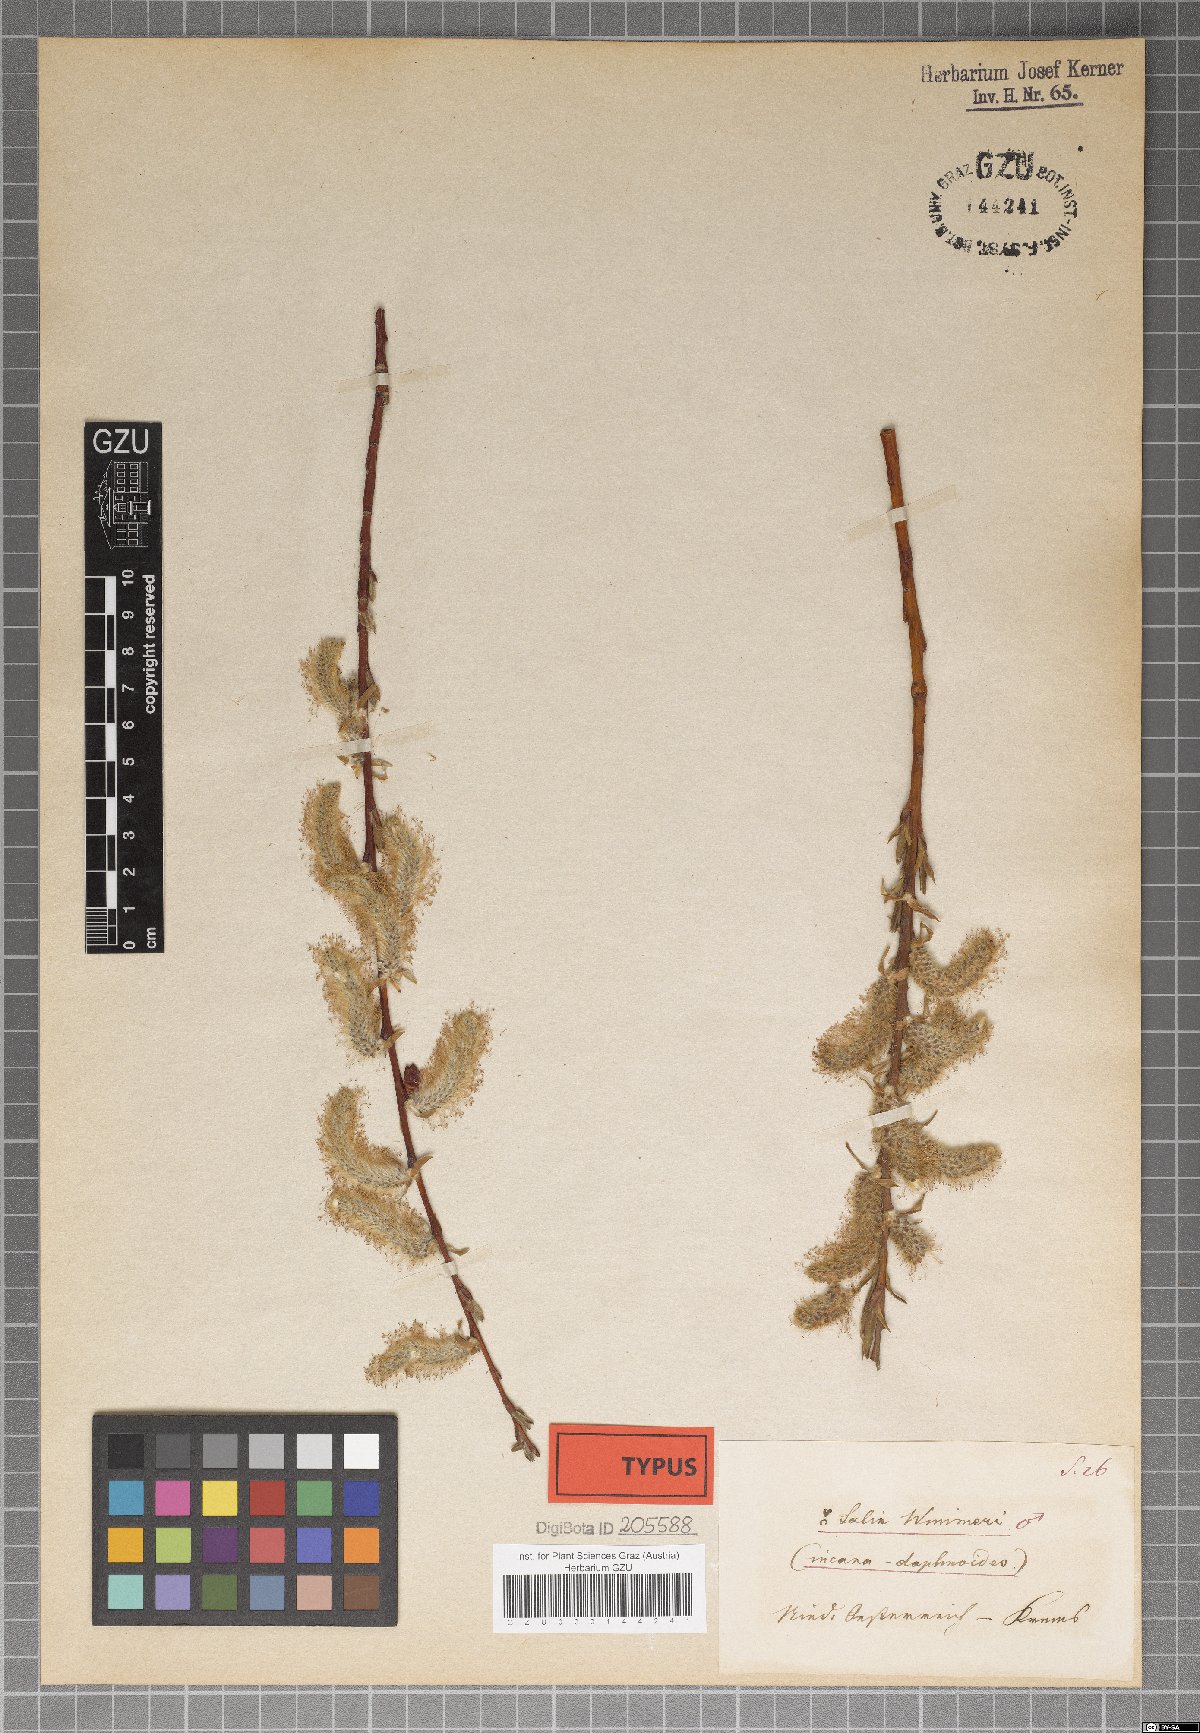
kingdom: Plantae
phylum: Tracheophyta
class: Magnoliopsida
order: Malpighiales
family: Salicaceae
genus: Salix
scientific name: Salix reuteri
